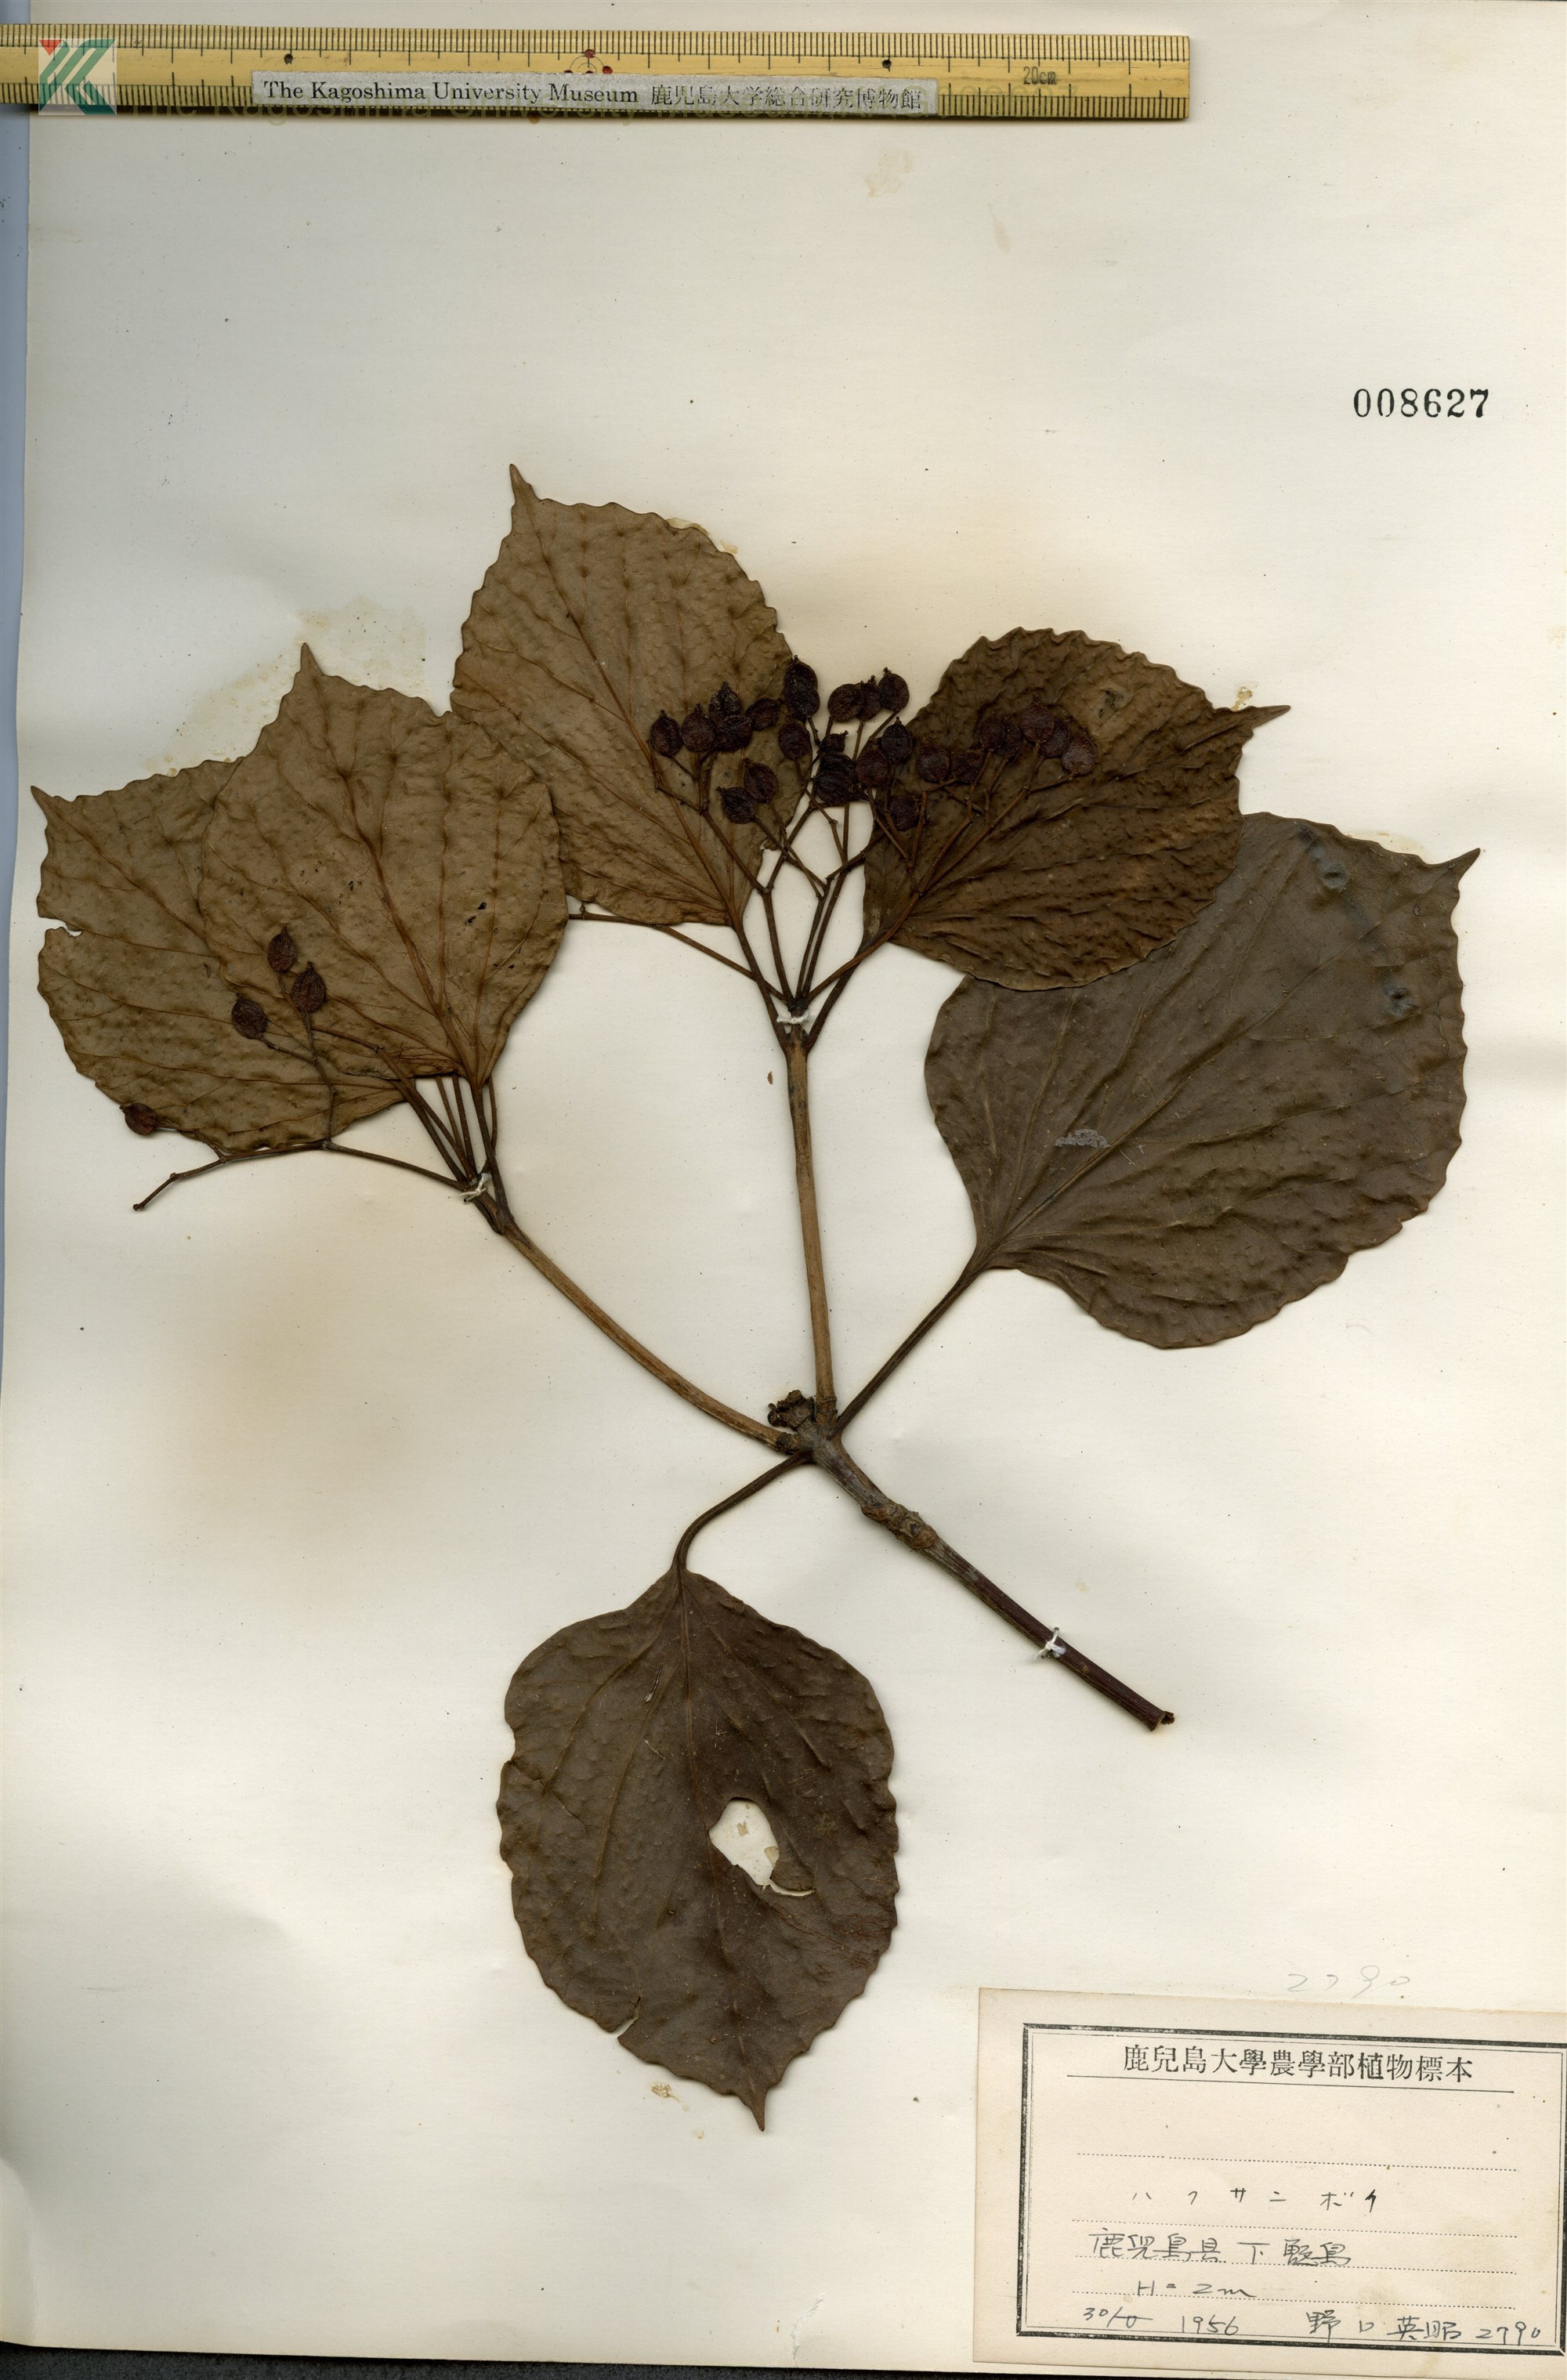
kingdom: Plantae
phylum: Tracheophyta
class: Magnoliopsida
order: Dipsacales
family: Viburnaceae
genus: Viburnum
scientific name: Viburnum japonicum
